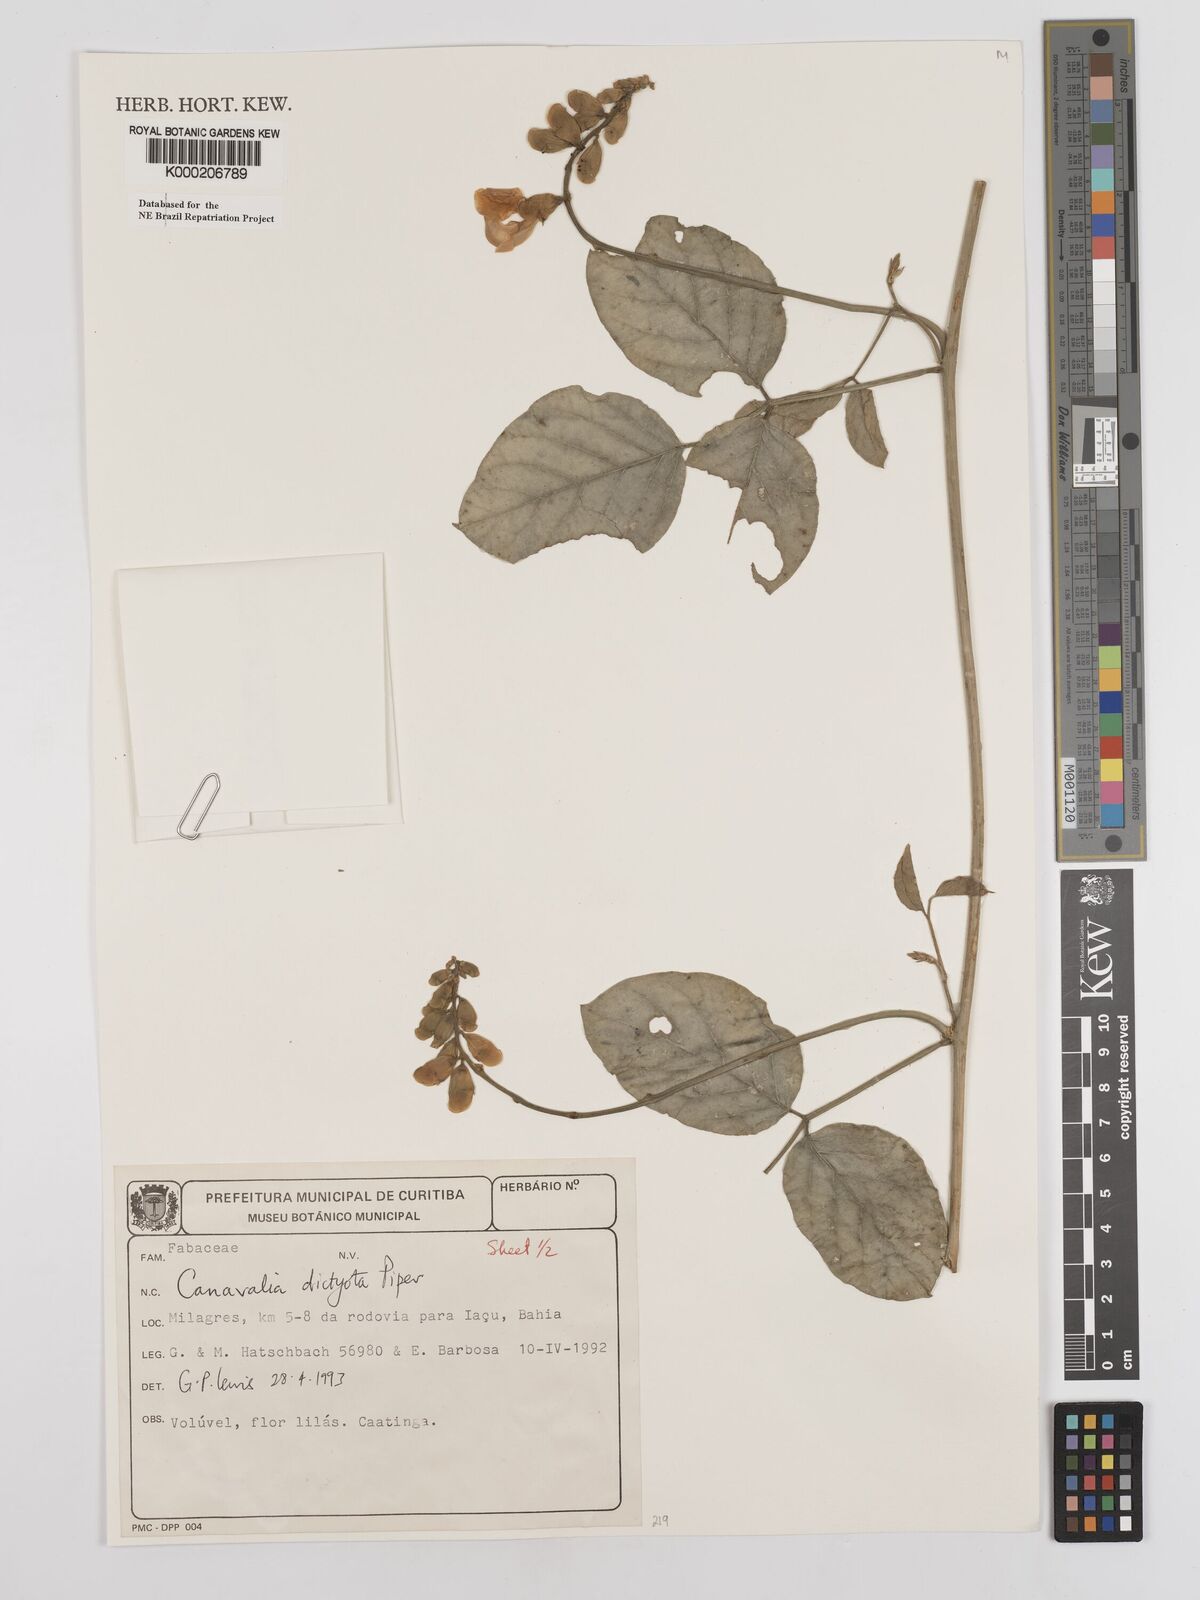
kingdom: Plantae
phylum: Tracheophyta
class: Magnoliopsida
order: Fabales
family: Fabaceae
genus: Canavalia
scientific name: Canavalia brasiliensis
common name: Barbicou-bean
